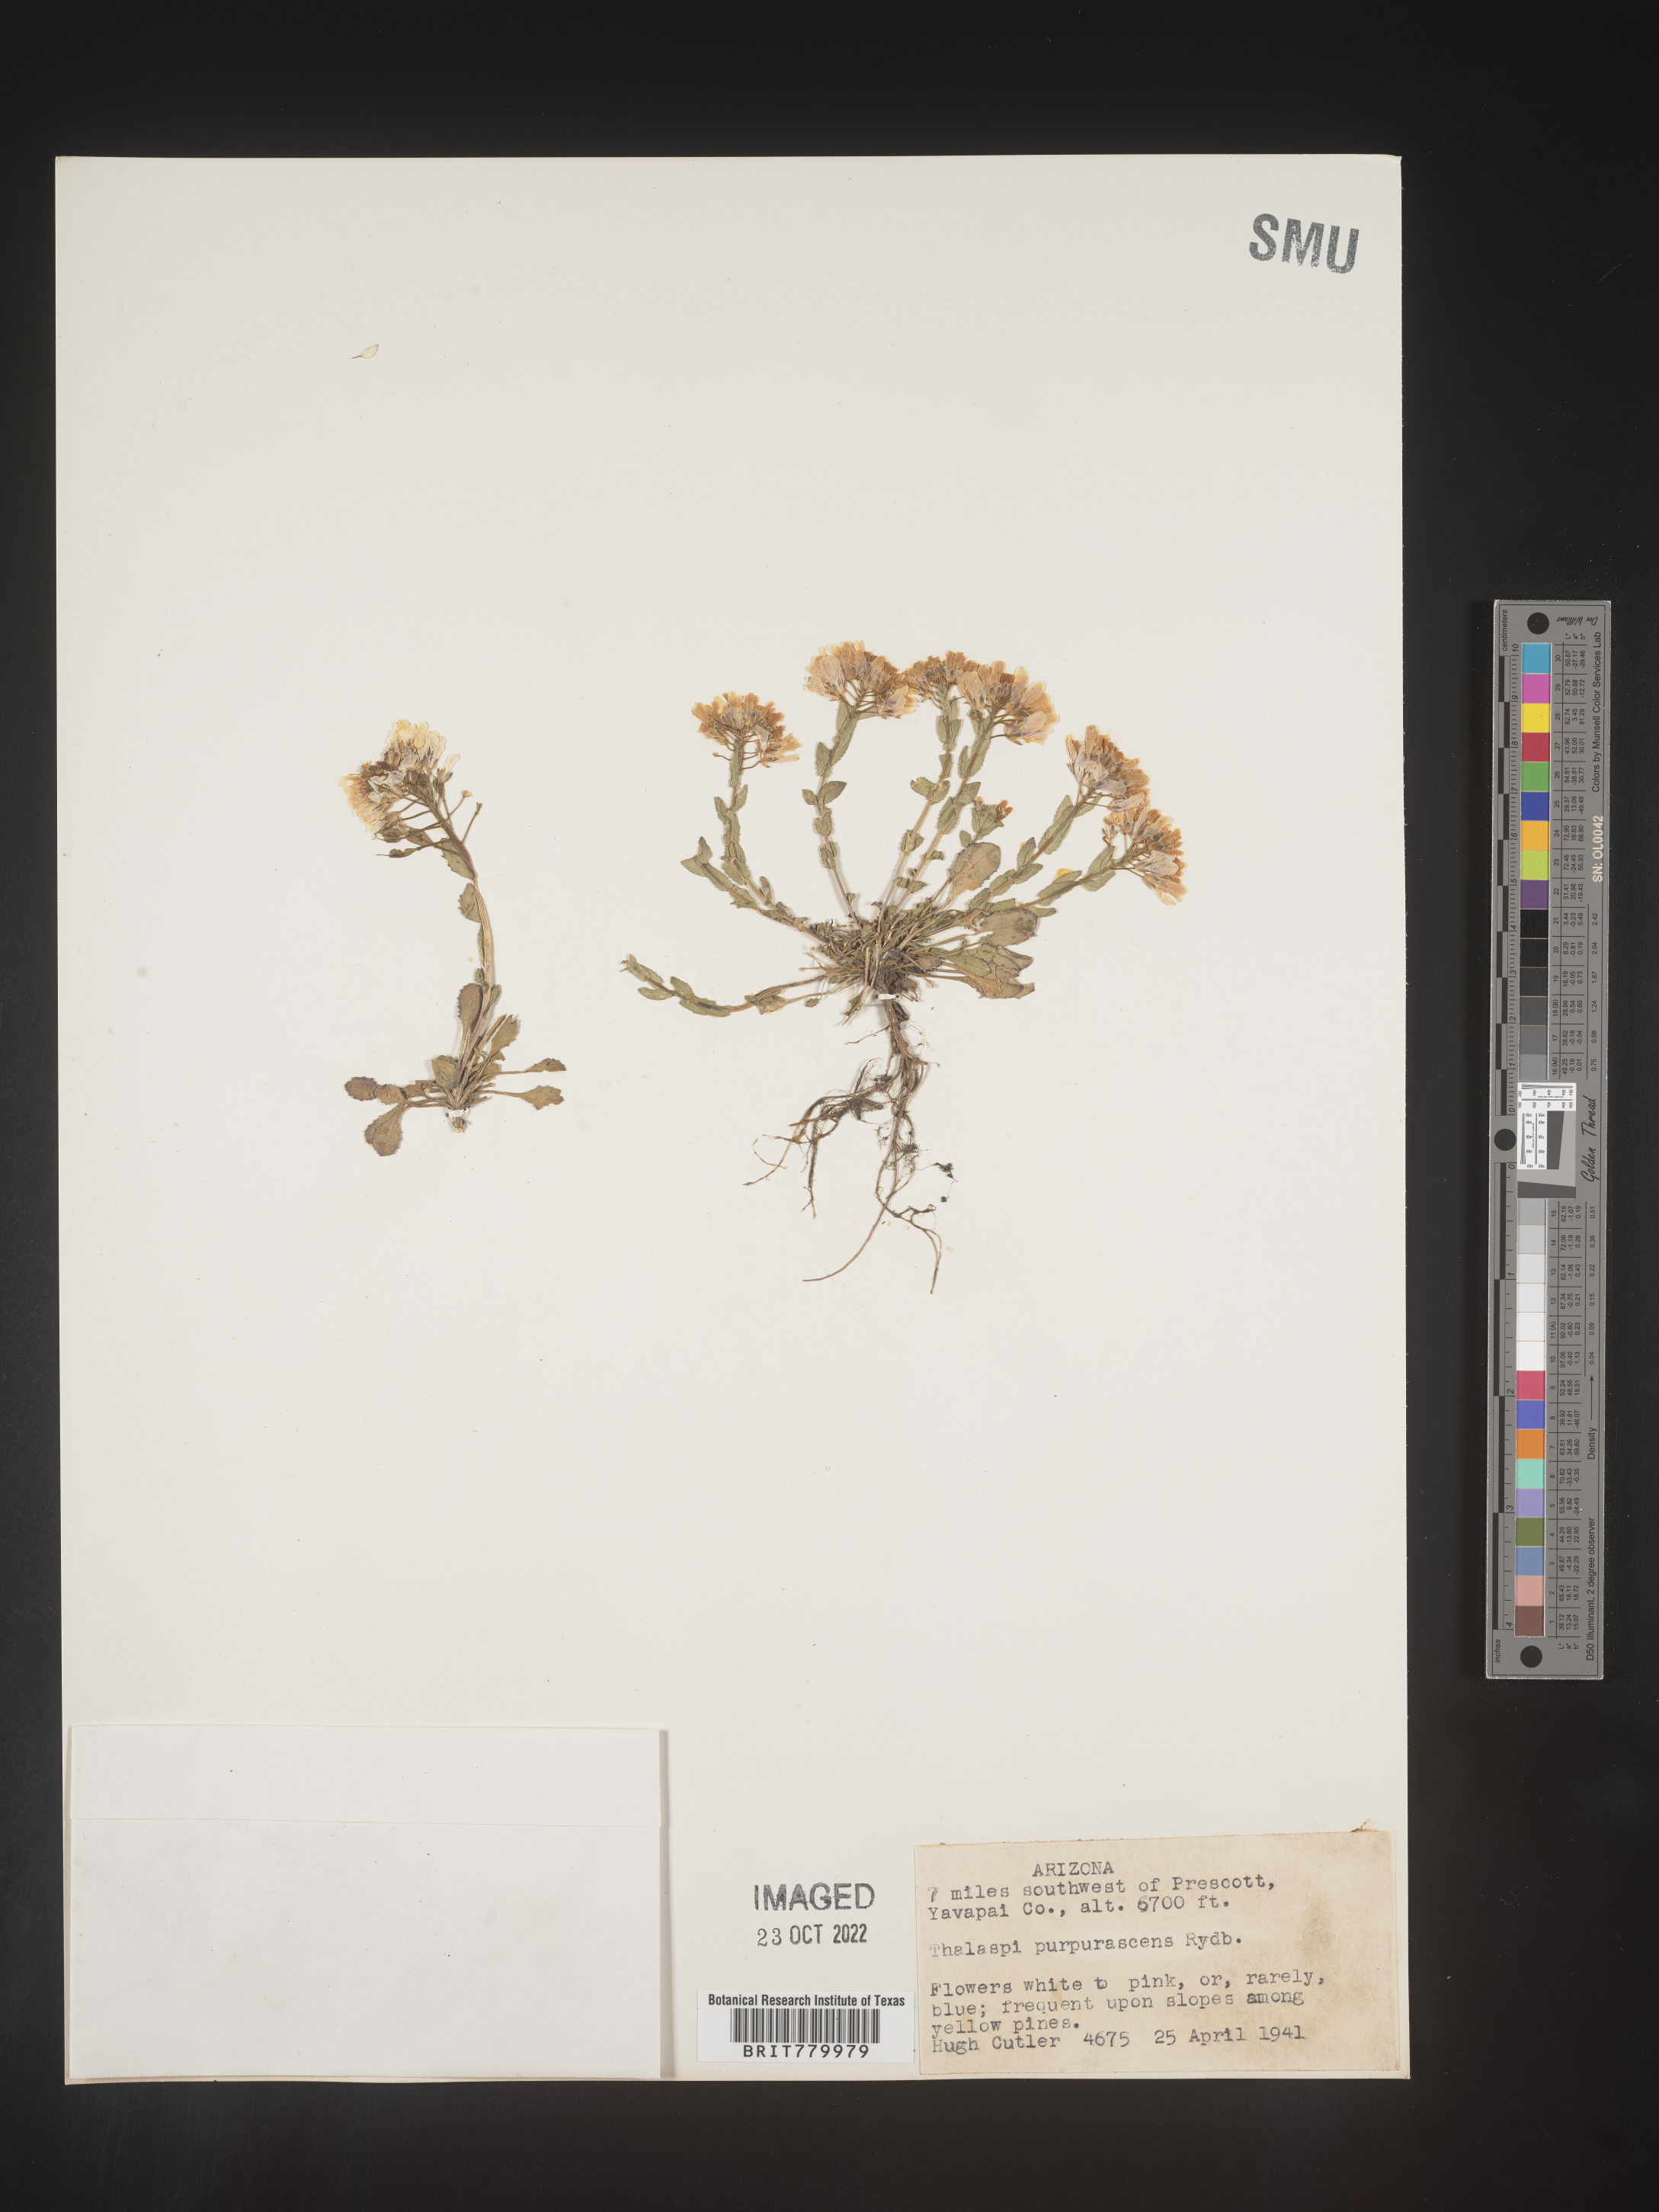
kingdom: Plantae
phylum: Tracheophyta
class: Magnoliopsida
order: Brassicales
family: Brassicaceae
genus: Thlaspi
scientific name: Thlaspi
